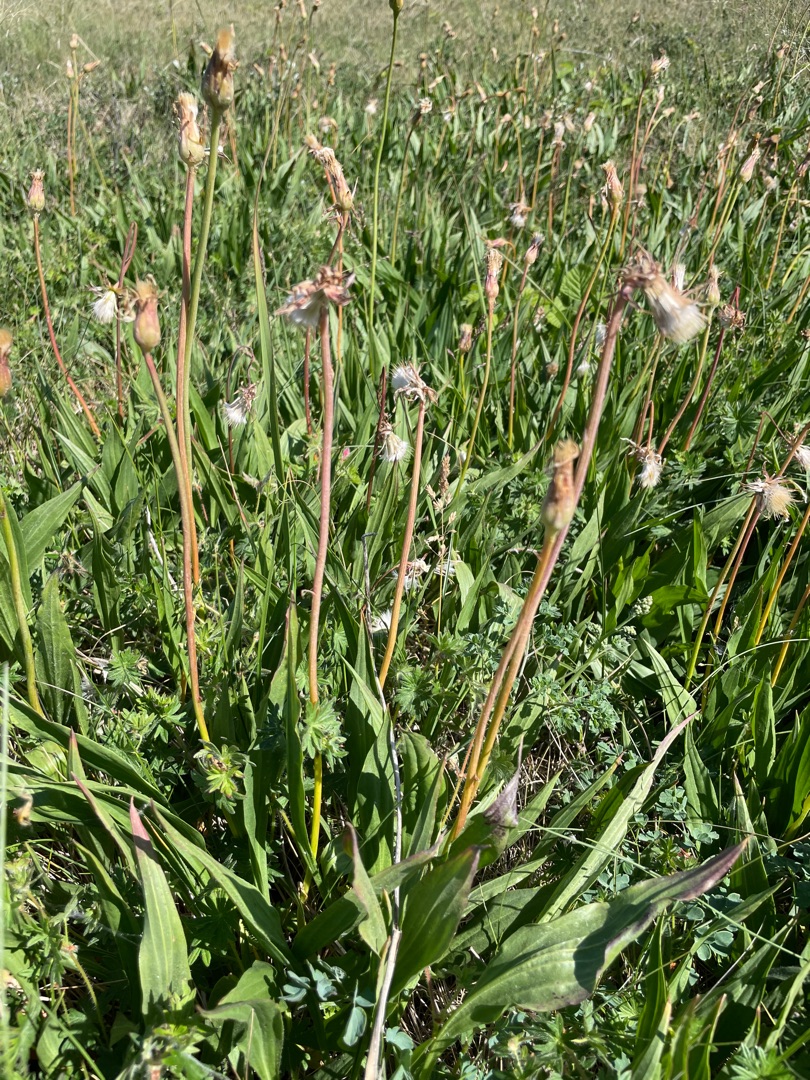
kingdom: Plantae
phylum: Tracheophyta
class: Magnoliopsida
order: Asterales
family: Asteraceae
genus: Scorzonera
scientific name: Scorzonera humilis
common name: Lav skorsoner
